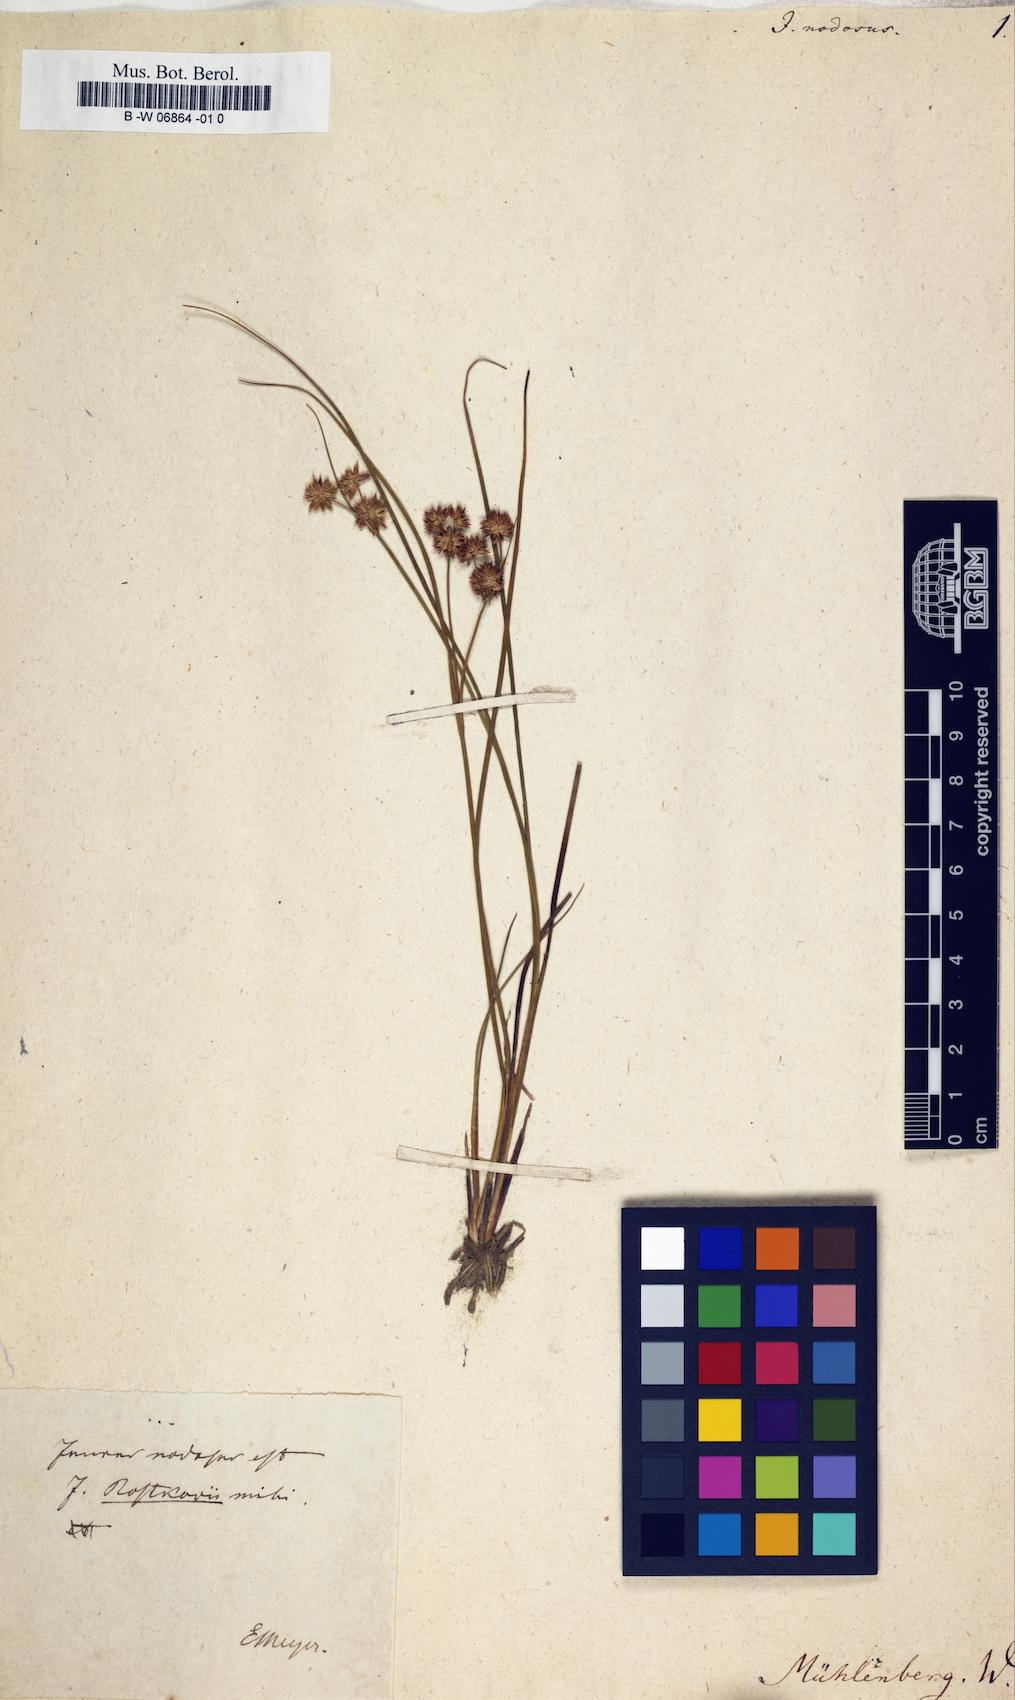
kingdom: Plantae
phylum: Tracheophyta
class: Liliopsida
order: Poales
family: Juncaceae
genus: Juncus
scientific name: Juncus nodosus
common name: Knotted rush
